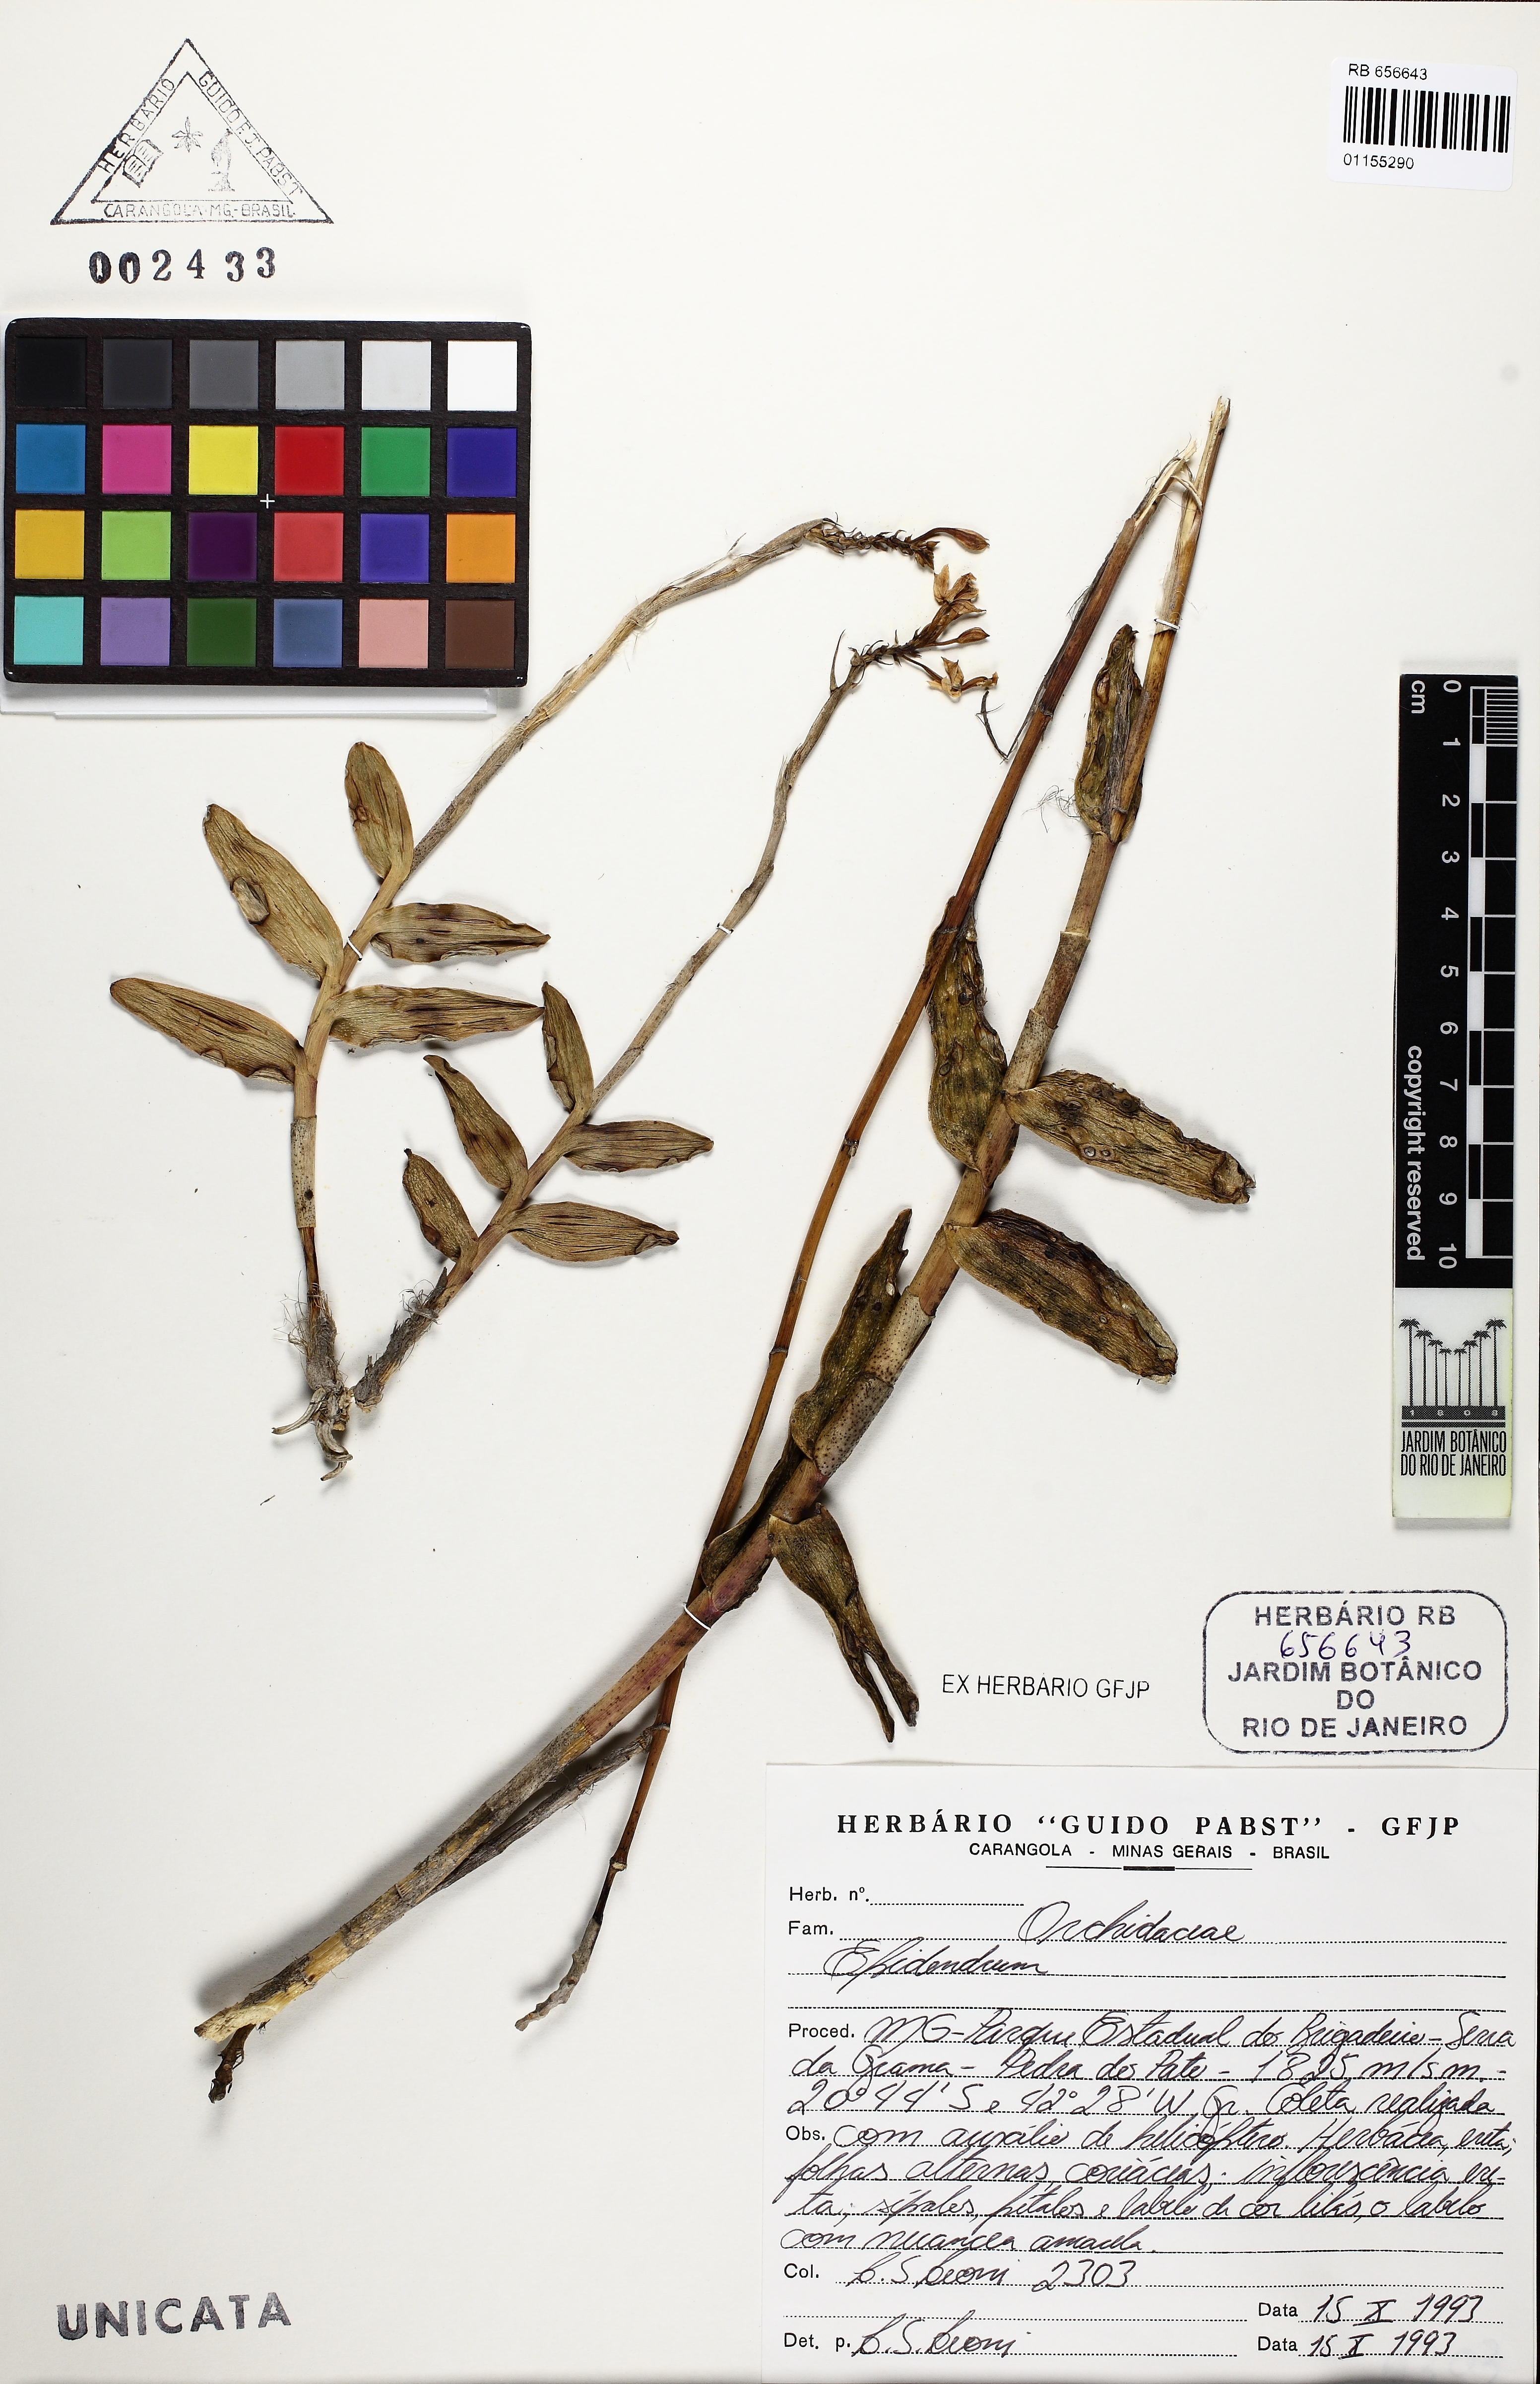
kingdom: Plantae
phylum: Tracheophyta
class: Liliopsida
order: Asparagales
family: Orchidaceae
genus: Epidendrum
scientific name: Epidendrum secundum
